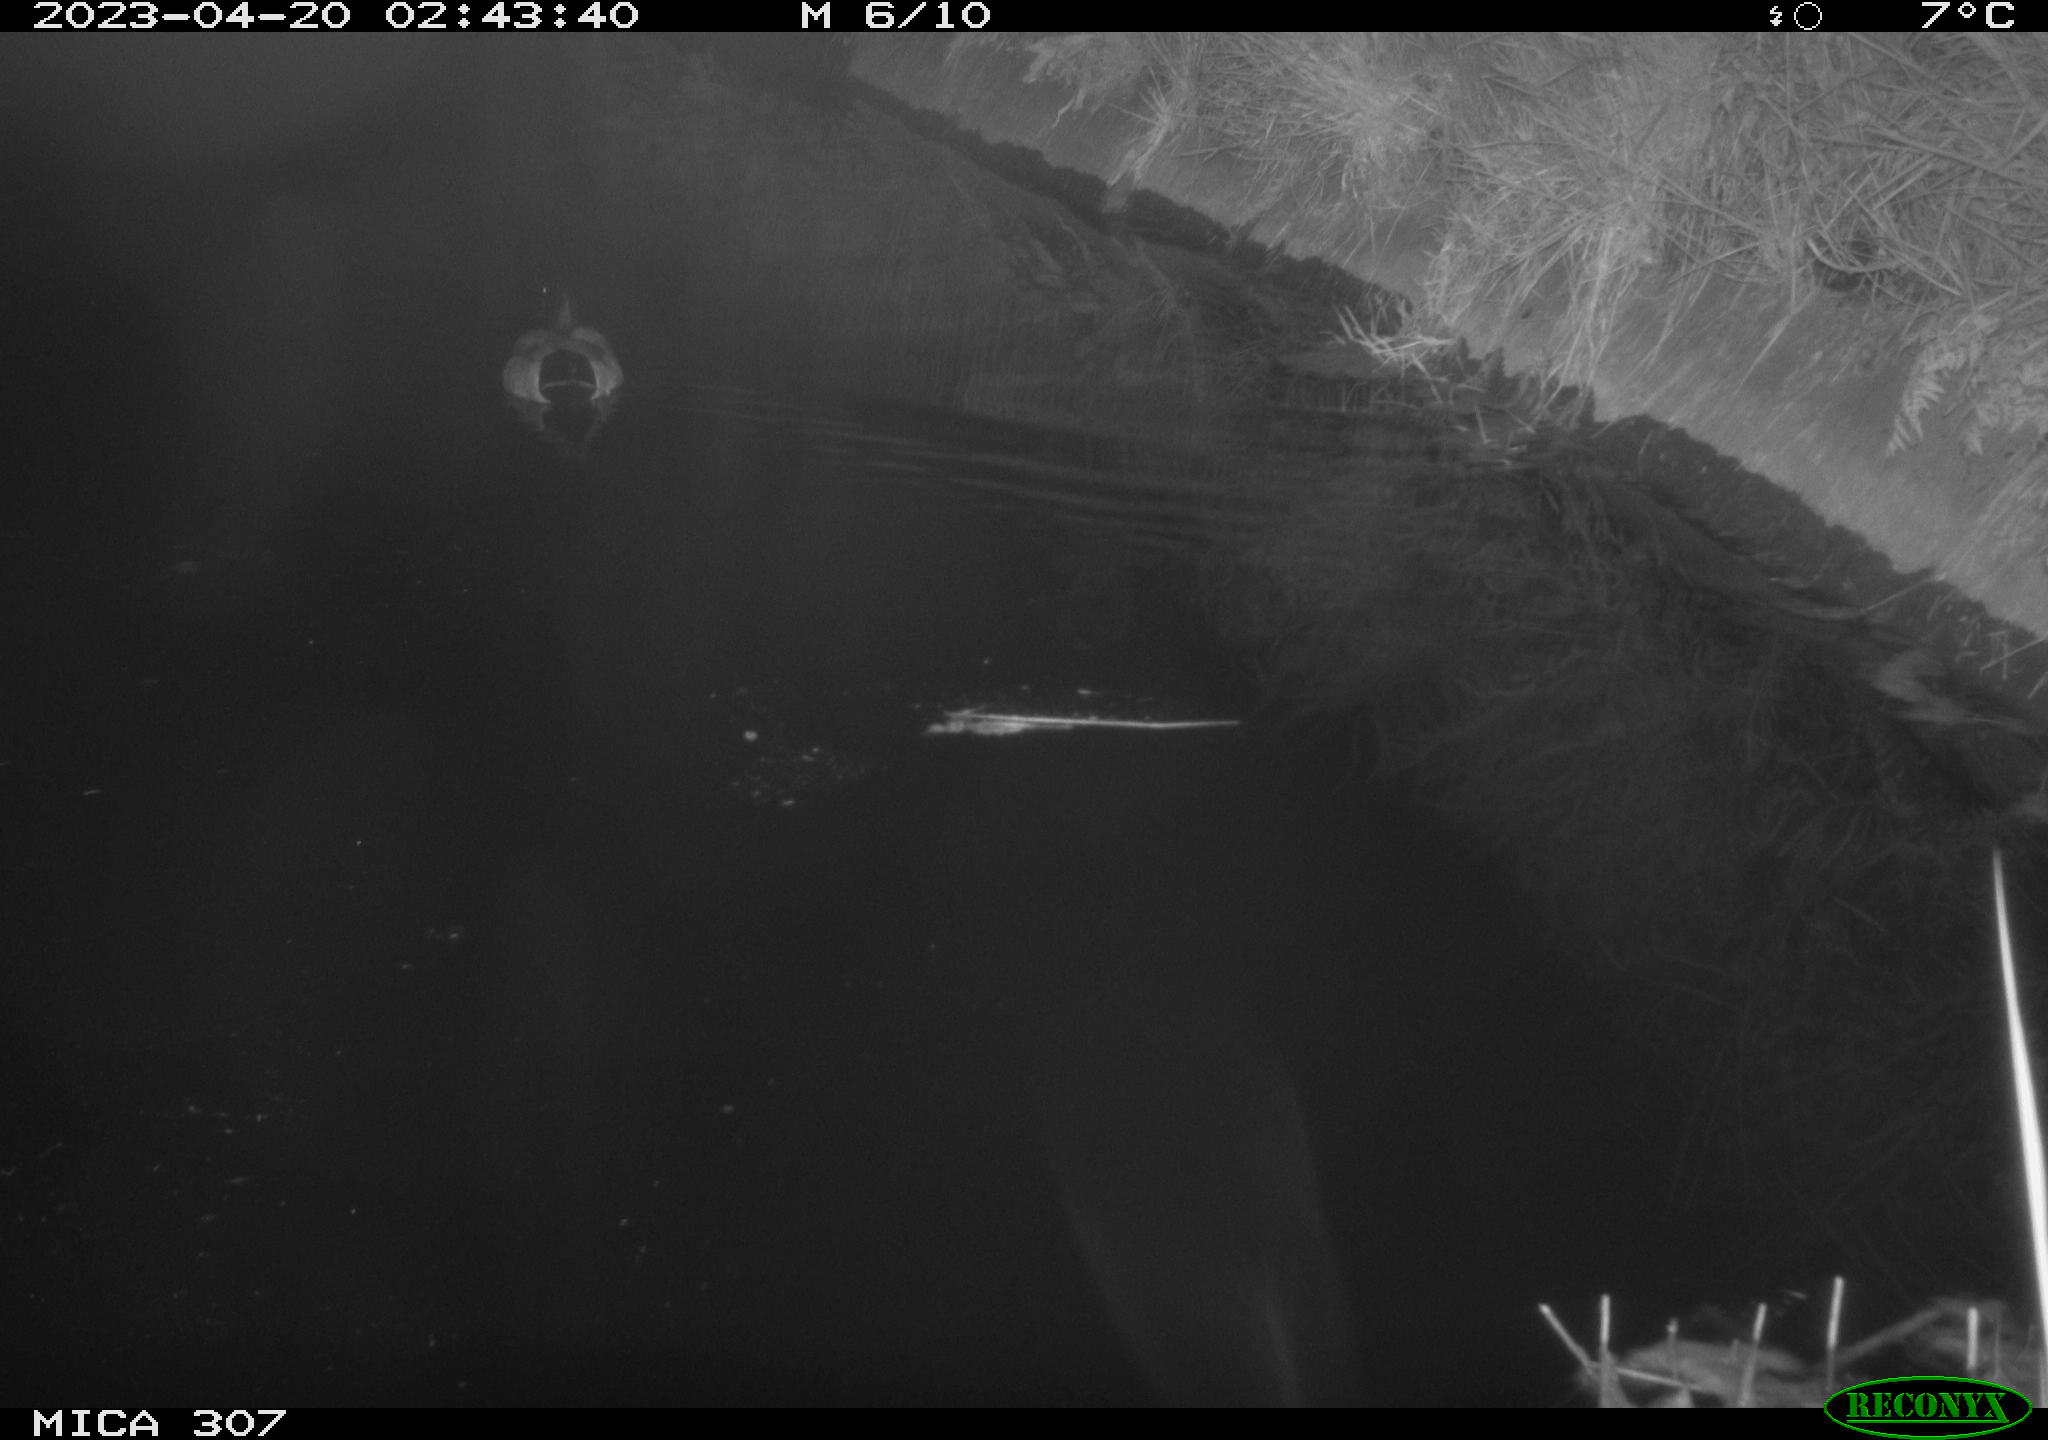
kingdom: Animalia
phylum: Chordata
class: Aves
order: Anseriformes
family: Anatidae
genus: Anas
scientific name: Anas
